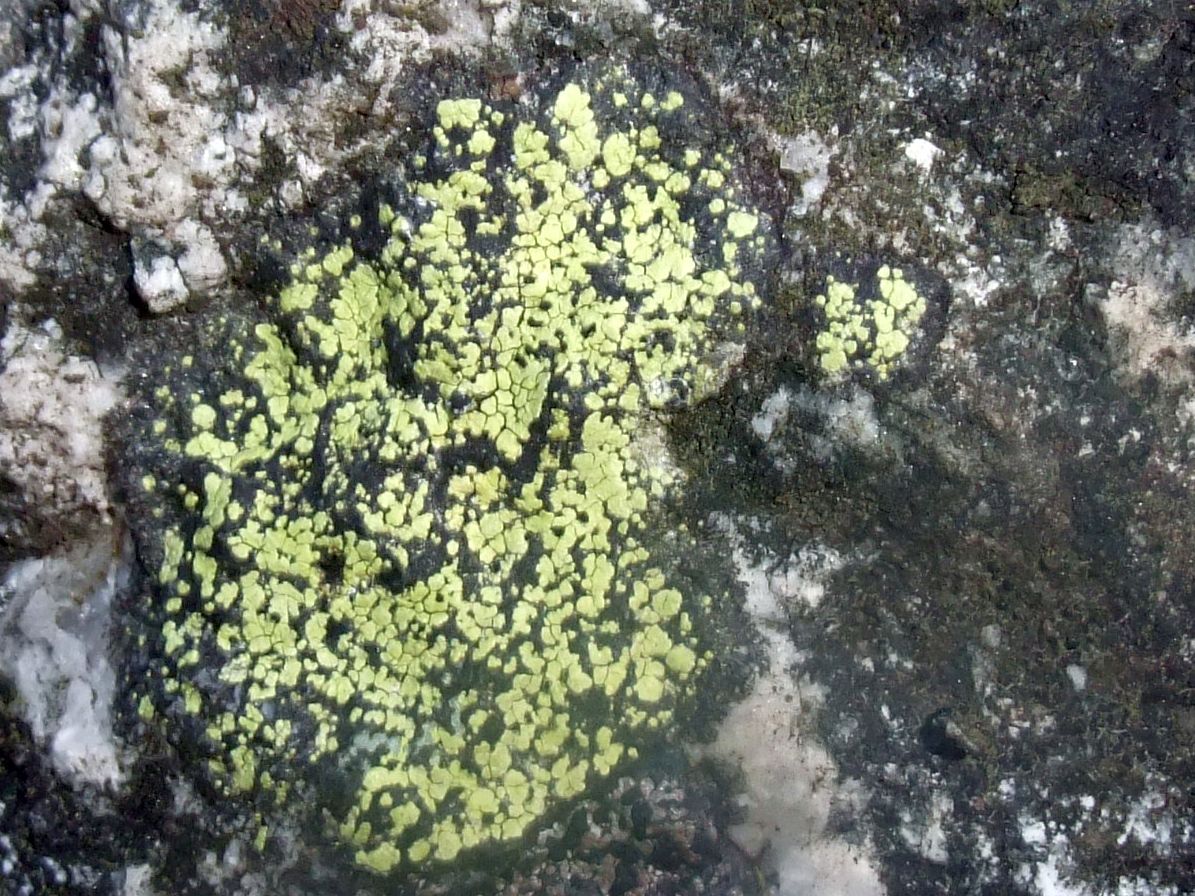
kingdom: Fungi
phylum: Ascomycota
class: Lecanoromycetes
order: Rhizocarpales
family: Rhizocarpaceae
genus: Rhizocarpon
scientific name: Rhizocarpon geographicum
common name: gulgrøn landkortlav
